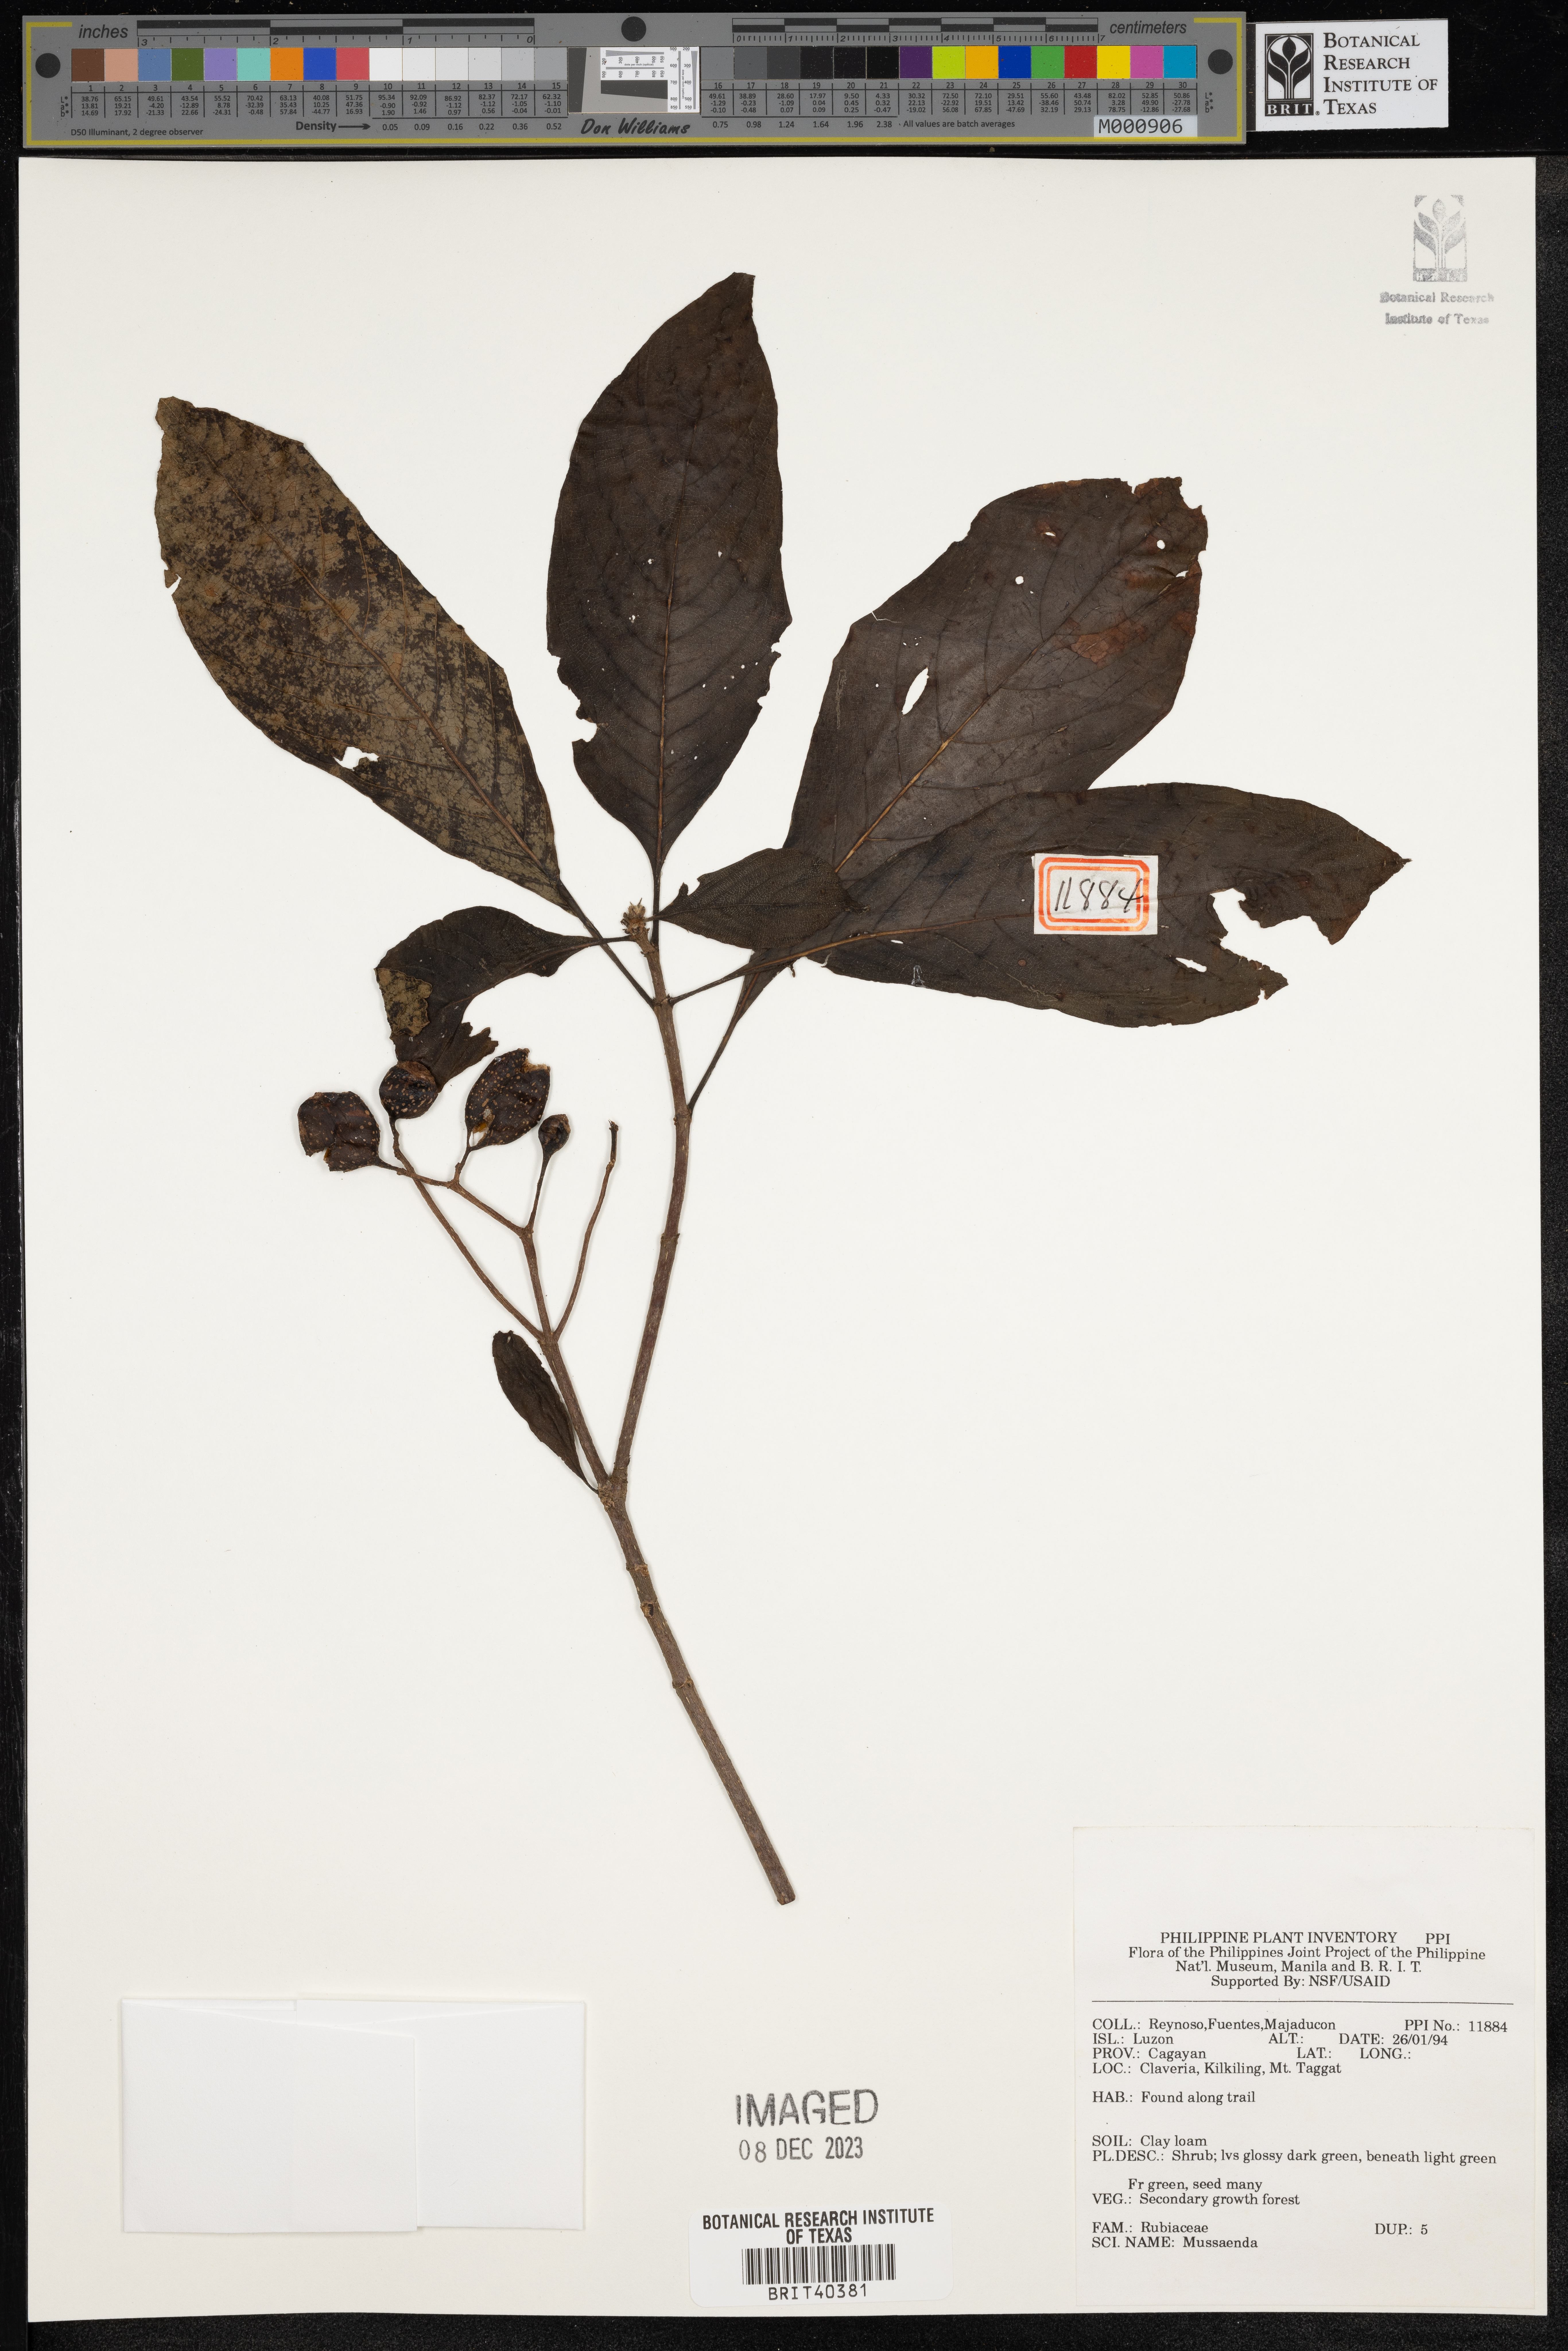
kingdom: Plantae
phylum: Tracheophyta
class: Magnoliopsida
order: Gentianales
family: Rubiaceae
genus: Mussaenda
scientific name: Mussaenda
